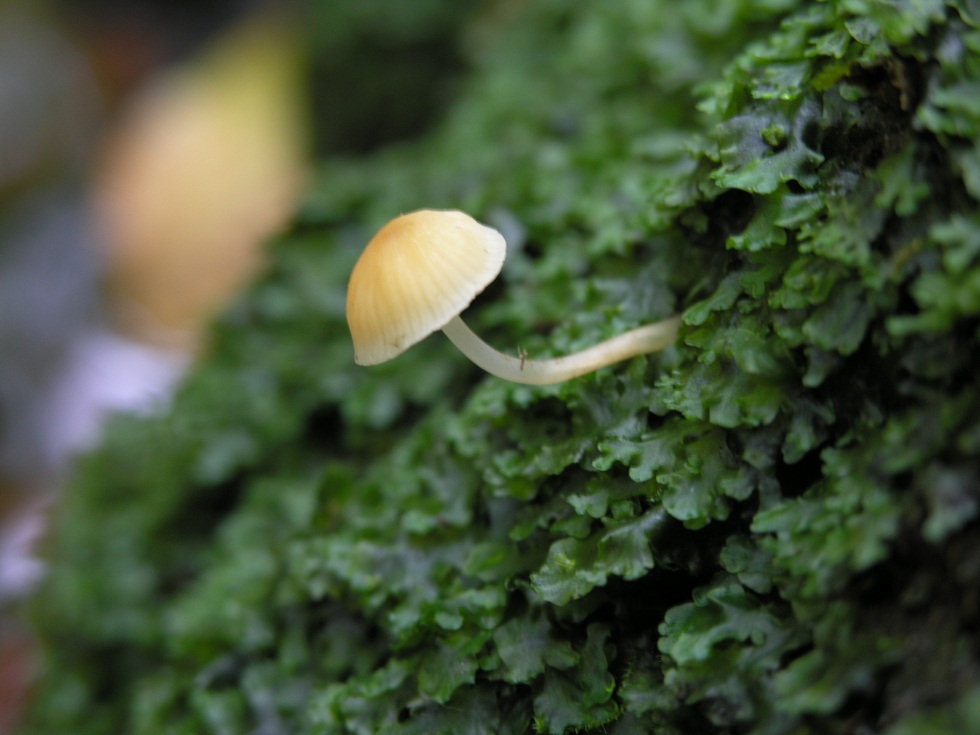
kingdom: Fungi
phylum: Basidiomycota
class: Agaricomycetes
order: Agaricales
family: Mycenaceae
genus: Atheniella
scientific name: Atheniella leptophylla
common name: abrikos-huesvamp
